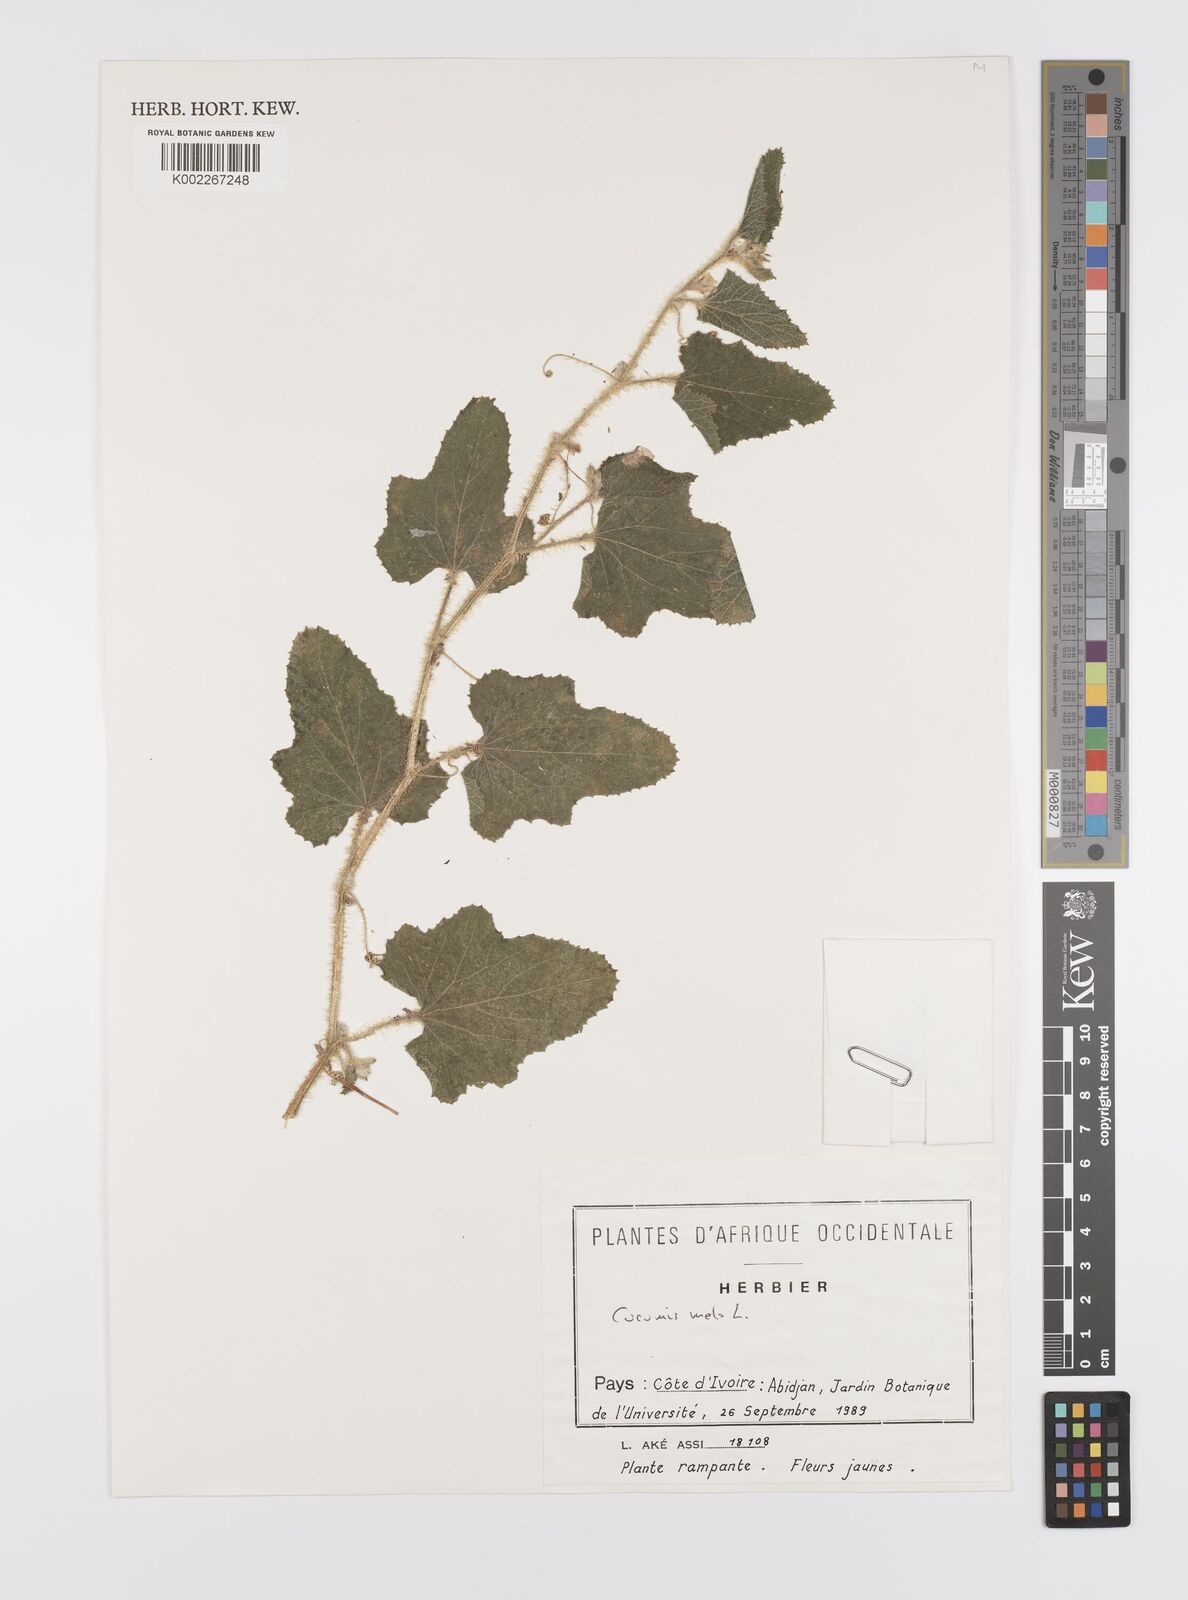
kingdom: Plantae
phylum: Tracheophyta
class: Magnoliopsida
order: Cucurbitales
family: Cucurbitaceae
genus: Cucumis
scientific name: Cucumis melo
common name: Melon
